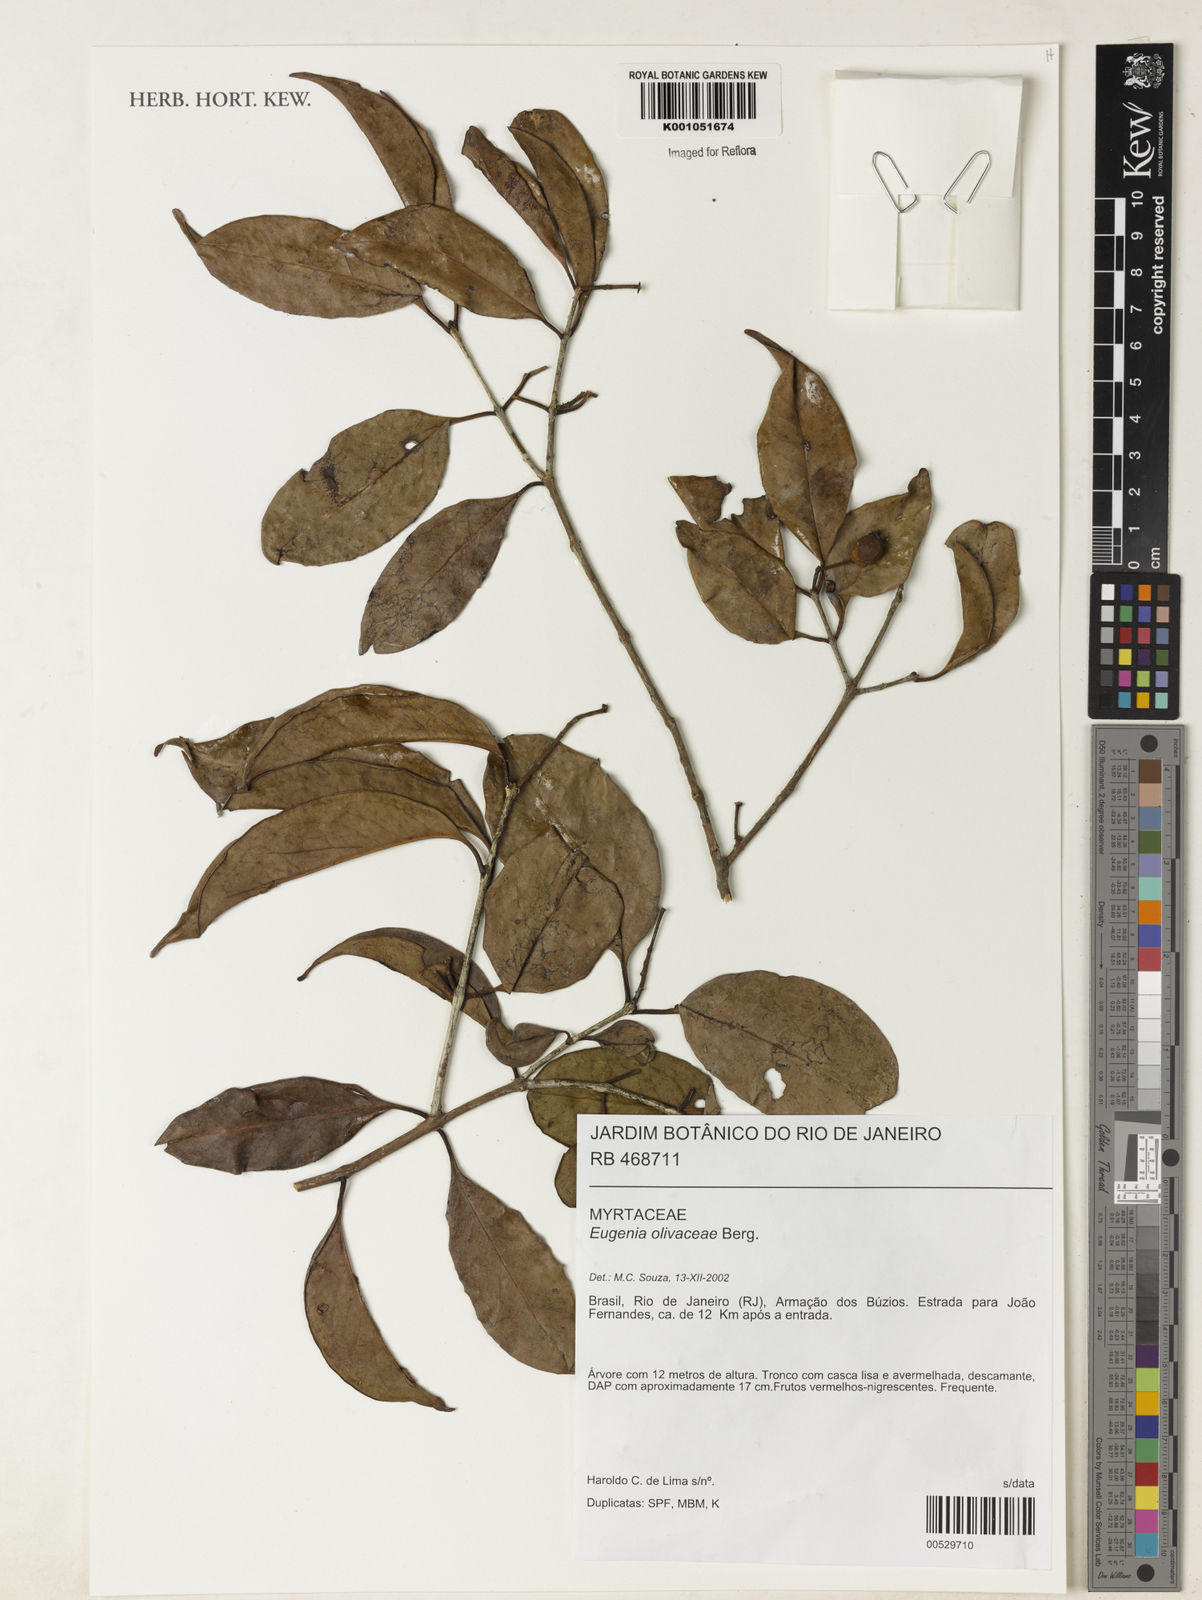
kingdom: Plantae
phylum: Tracheophyta
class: Magnoliopsida
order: Myrtales
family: Myrtaceae
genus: Eugenia
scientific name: Eugenia pruniformis
